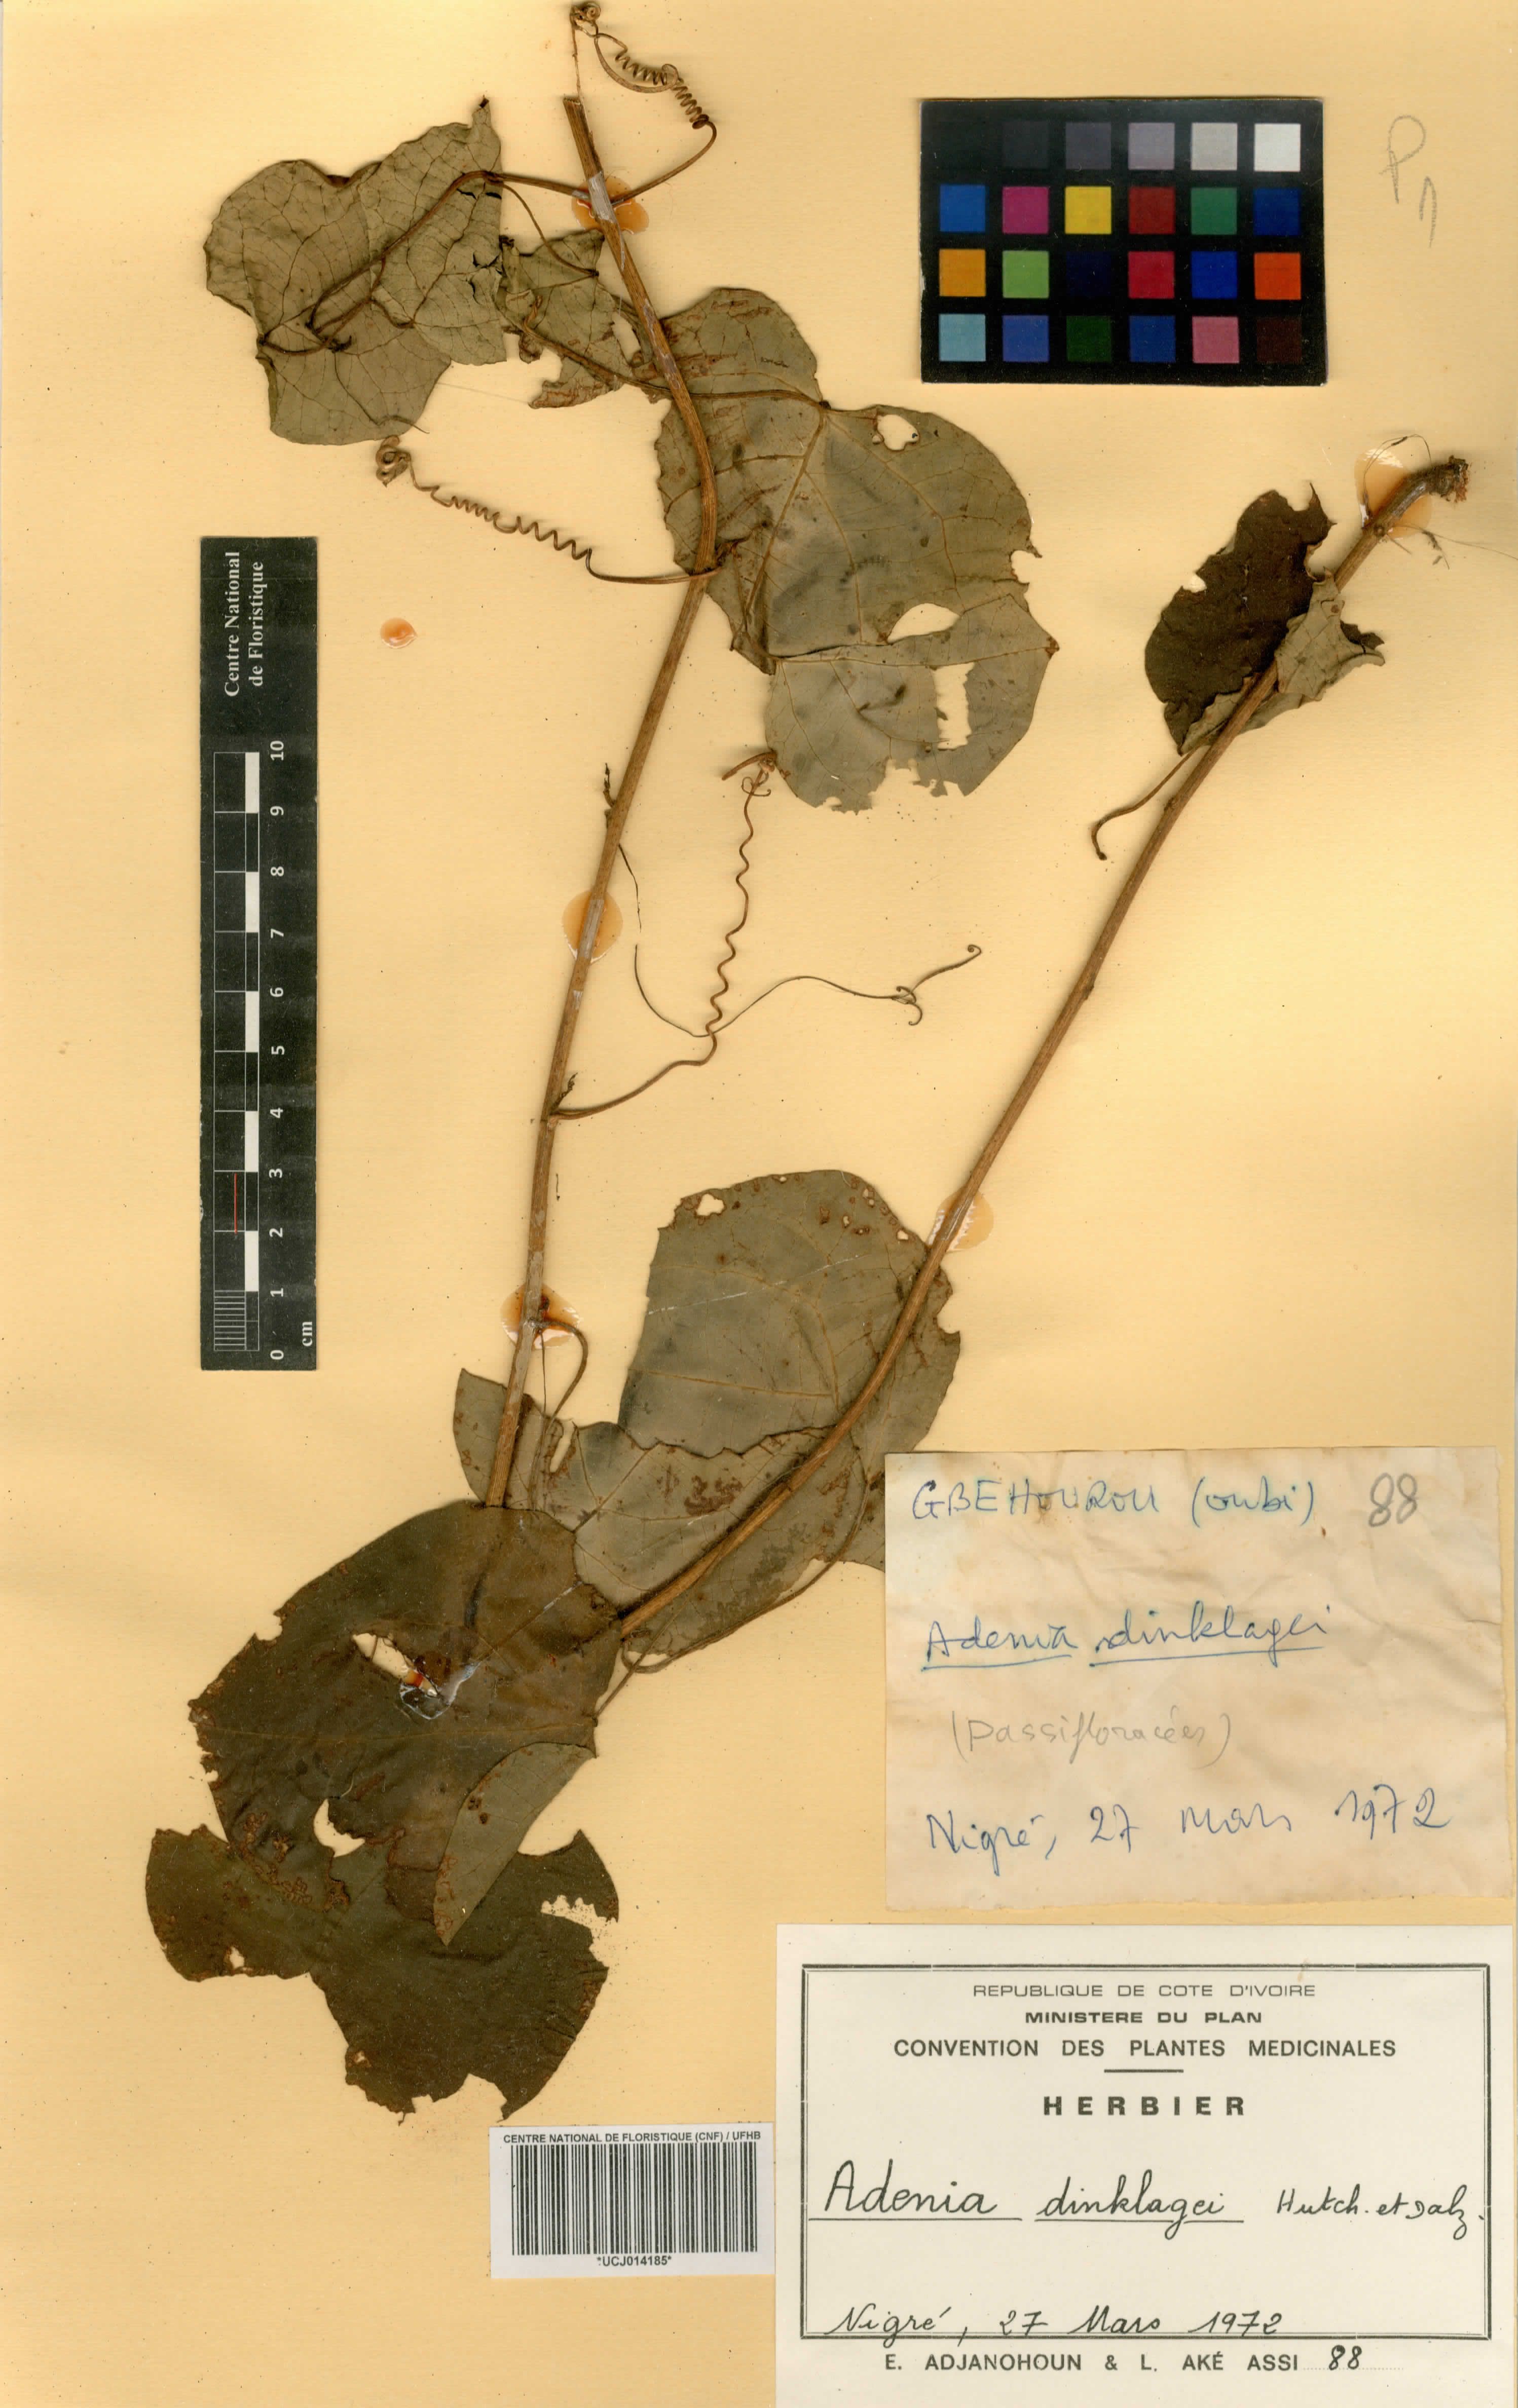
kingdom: Plantae
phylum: Tracheophyta
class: Magnoliopsida
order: Malpighiales
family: Passifloraceae
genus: Adenia
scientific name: Adenia dinklagei
